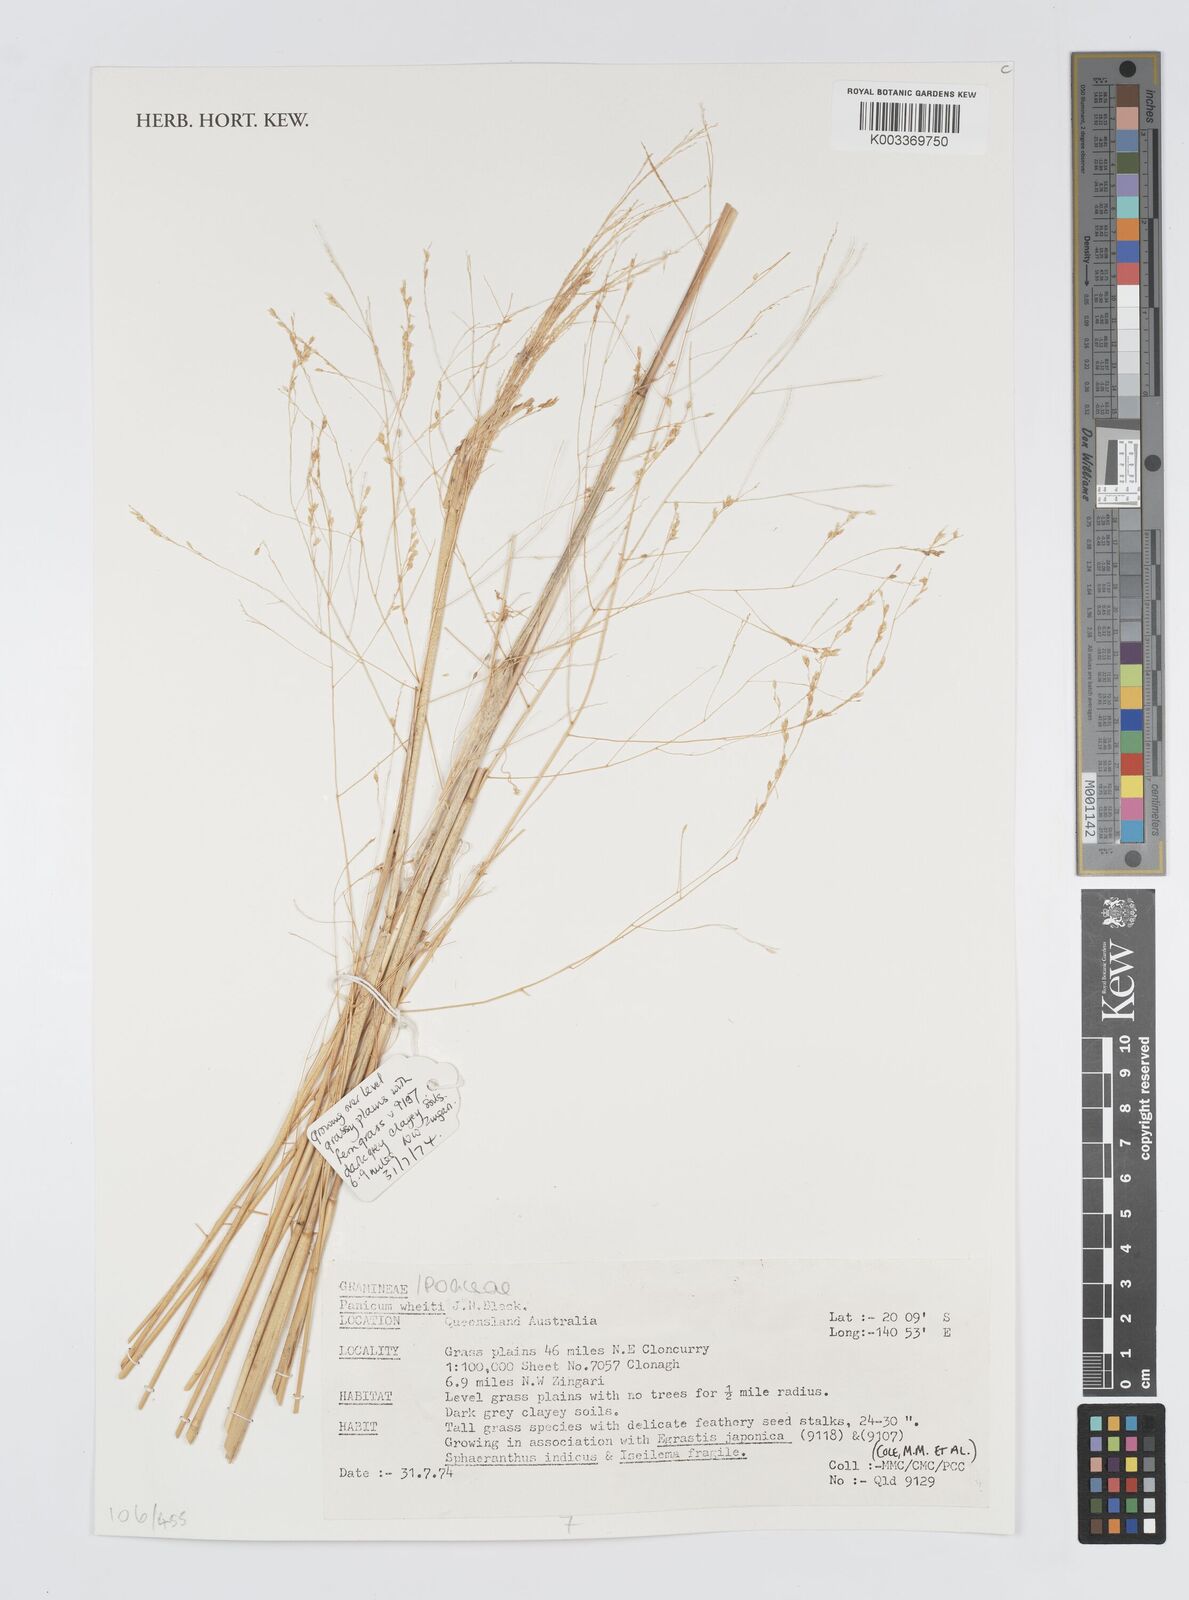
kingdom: Plantae
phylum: Tracheophyta
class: Liliopsida
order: Poales
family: Poaceae
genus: Panicum
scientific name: Panicum laevinode
